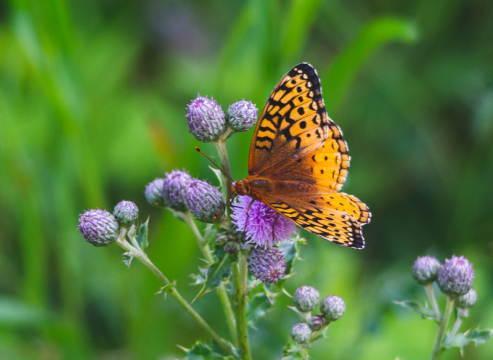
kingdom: Animalia
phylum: Arthropoda
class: Insecta
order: Lepidoptera
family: Nymphalidae
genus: Speyeria
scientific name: Speyeria cybele
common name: Great Spangled Fritillary
